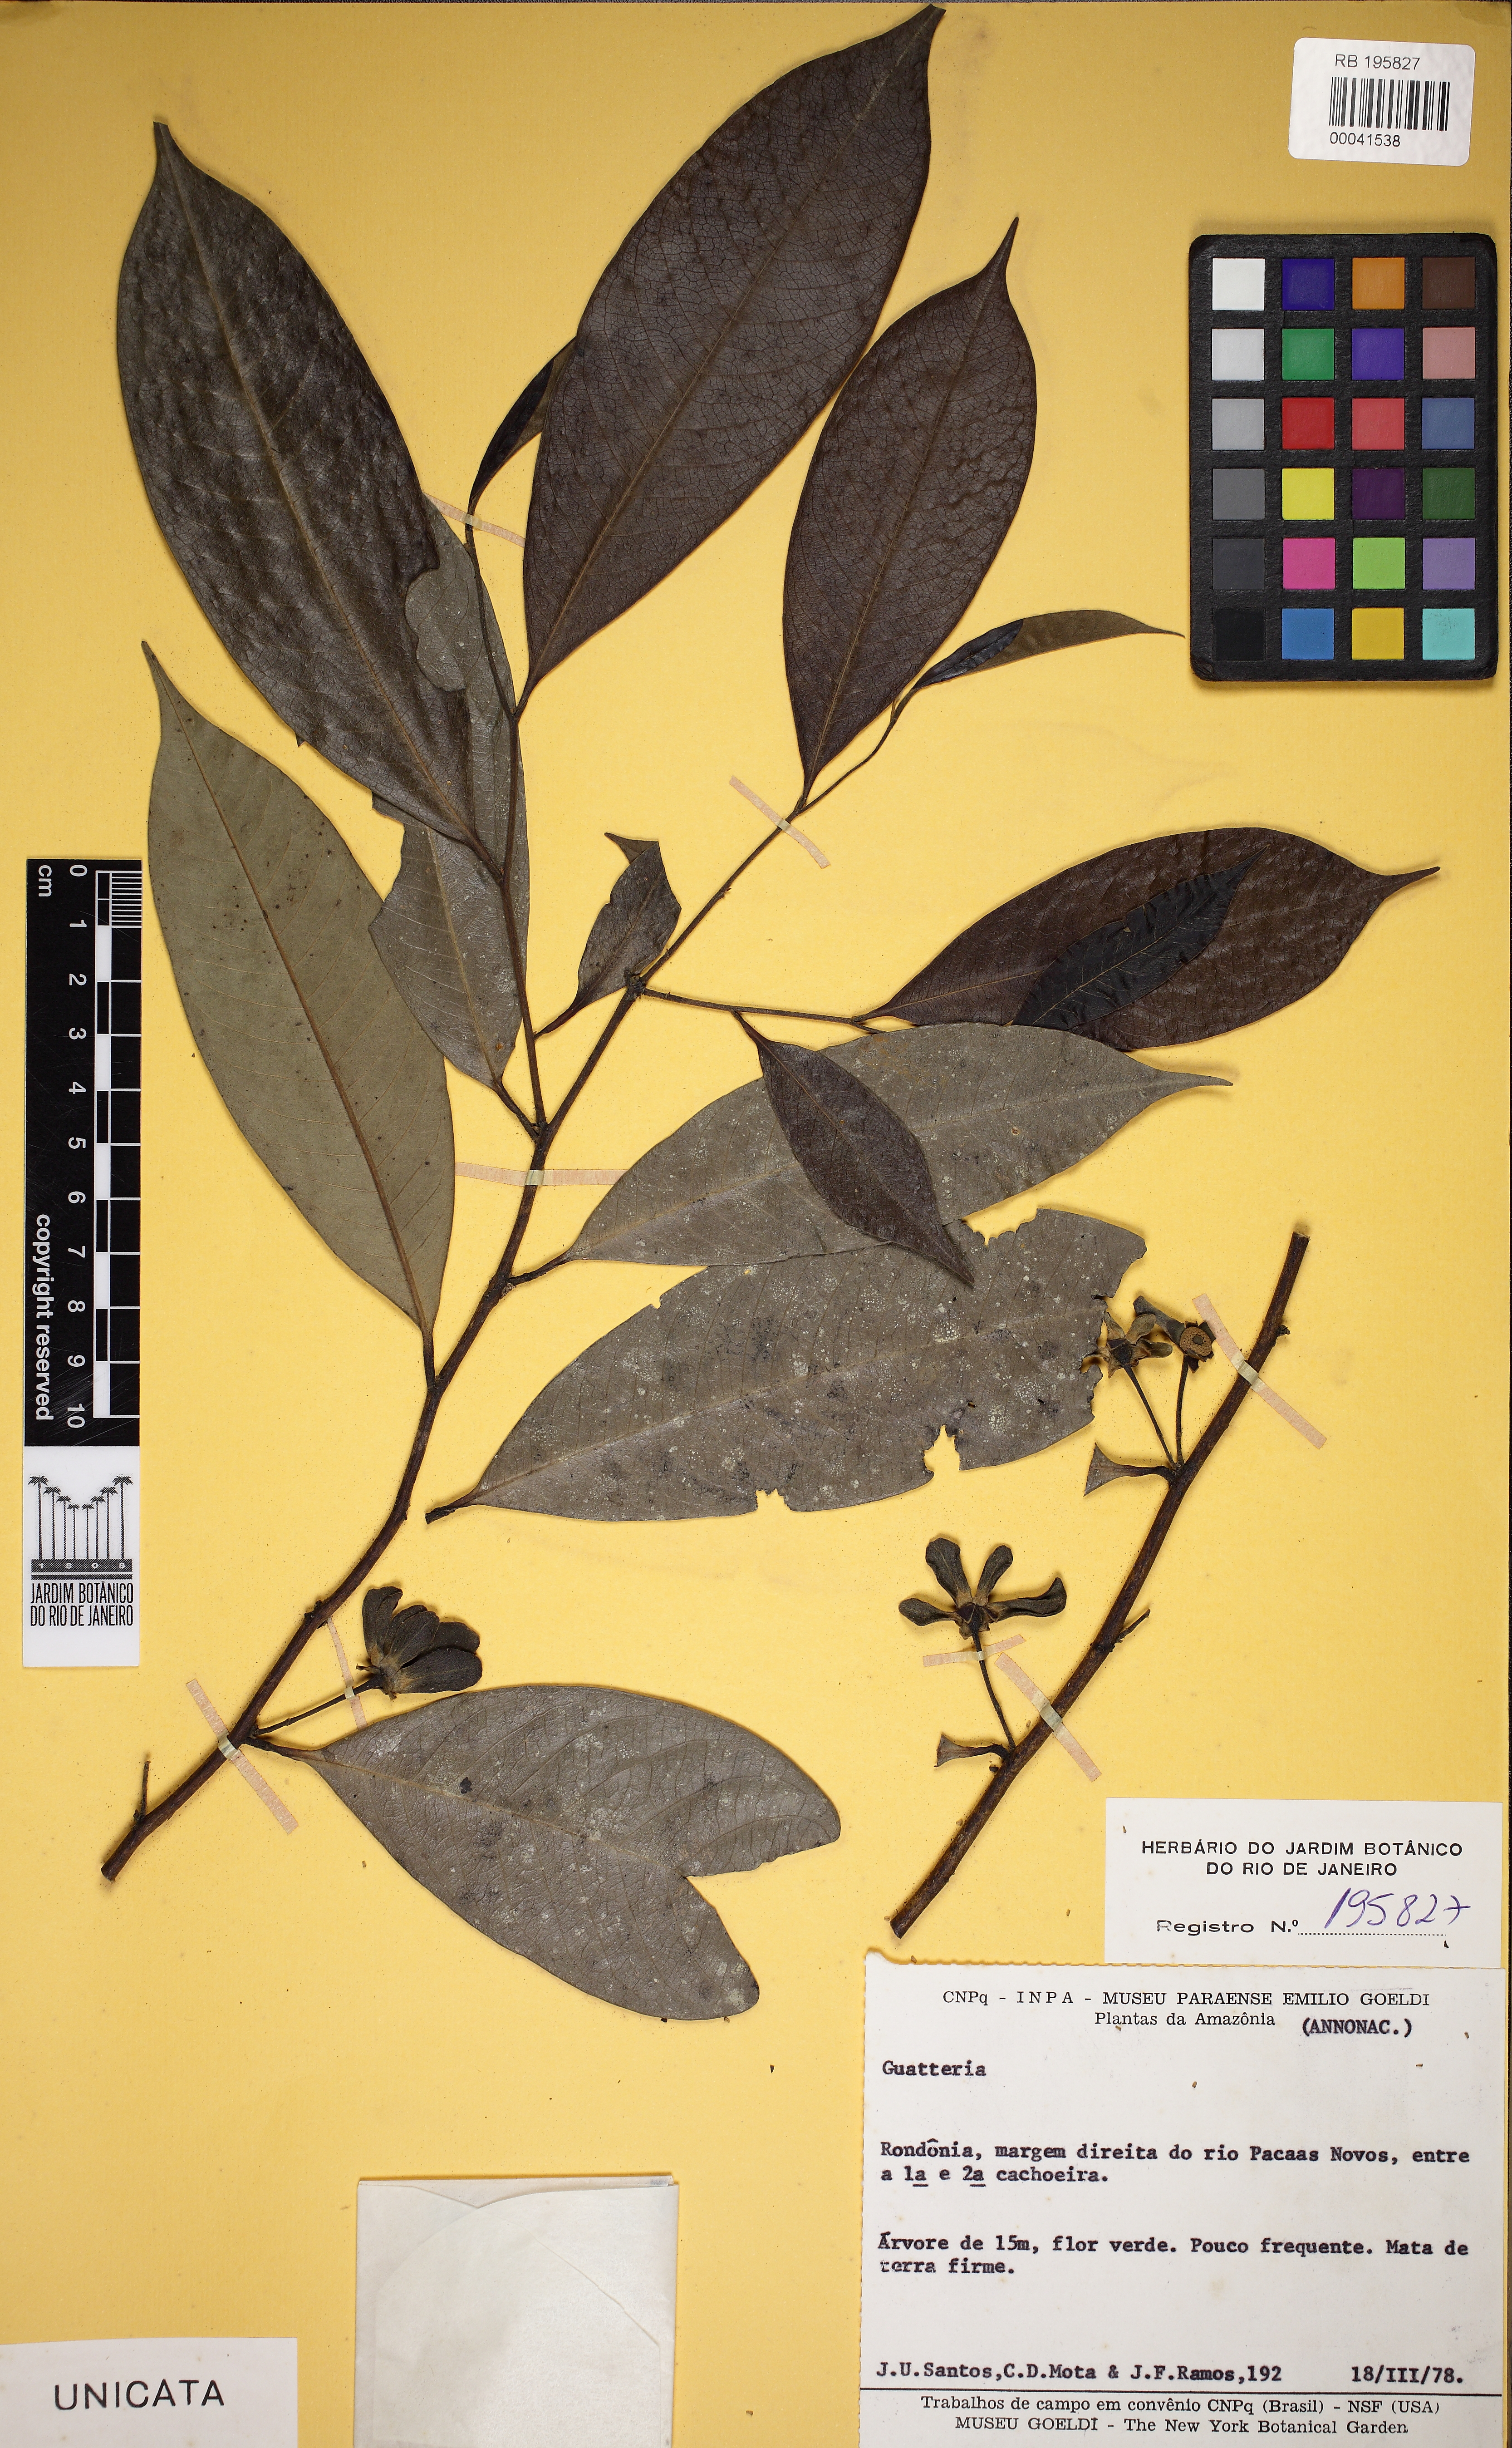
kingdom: Plantae
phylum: Tracheophyta
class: Magnoliopsida
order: Magnoliales
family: Annonaceae
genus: Guatteria
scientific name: Guatteria punctata
